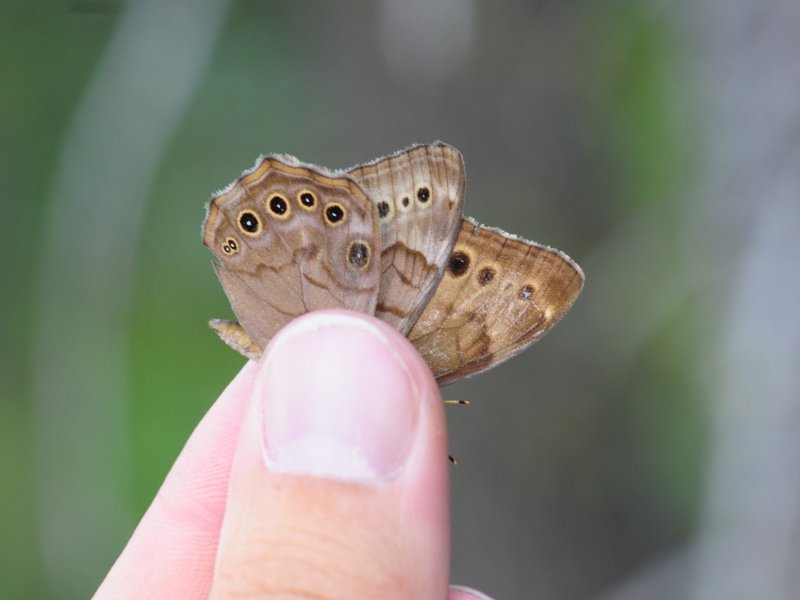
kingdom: Animalia
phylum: Arthropoda
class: Insecta
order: Lepidoptera
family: Nymphalidae
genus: Lethe
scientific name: Lethe anthedon
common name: Northern Pearly-Eye
